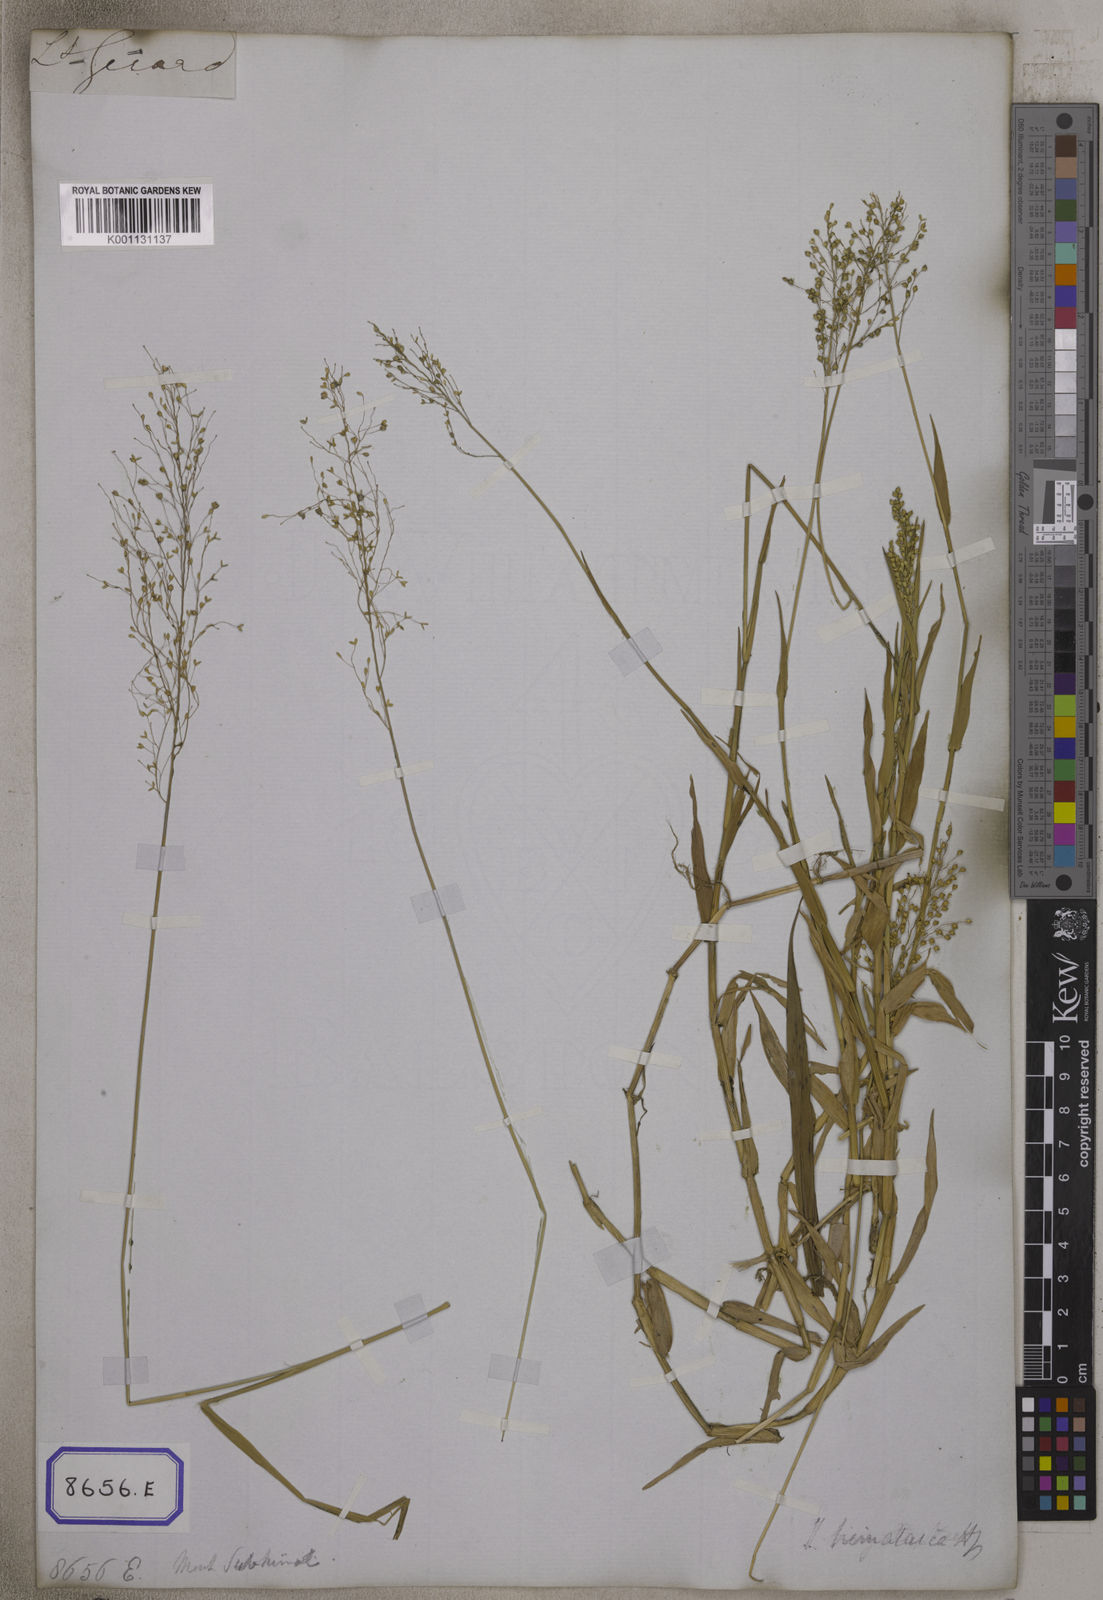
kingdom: Plantae
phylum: Tracheophyta
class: Liliopsida
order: Poales
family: Poaceae
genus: Isachne
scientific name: Isachne
